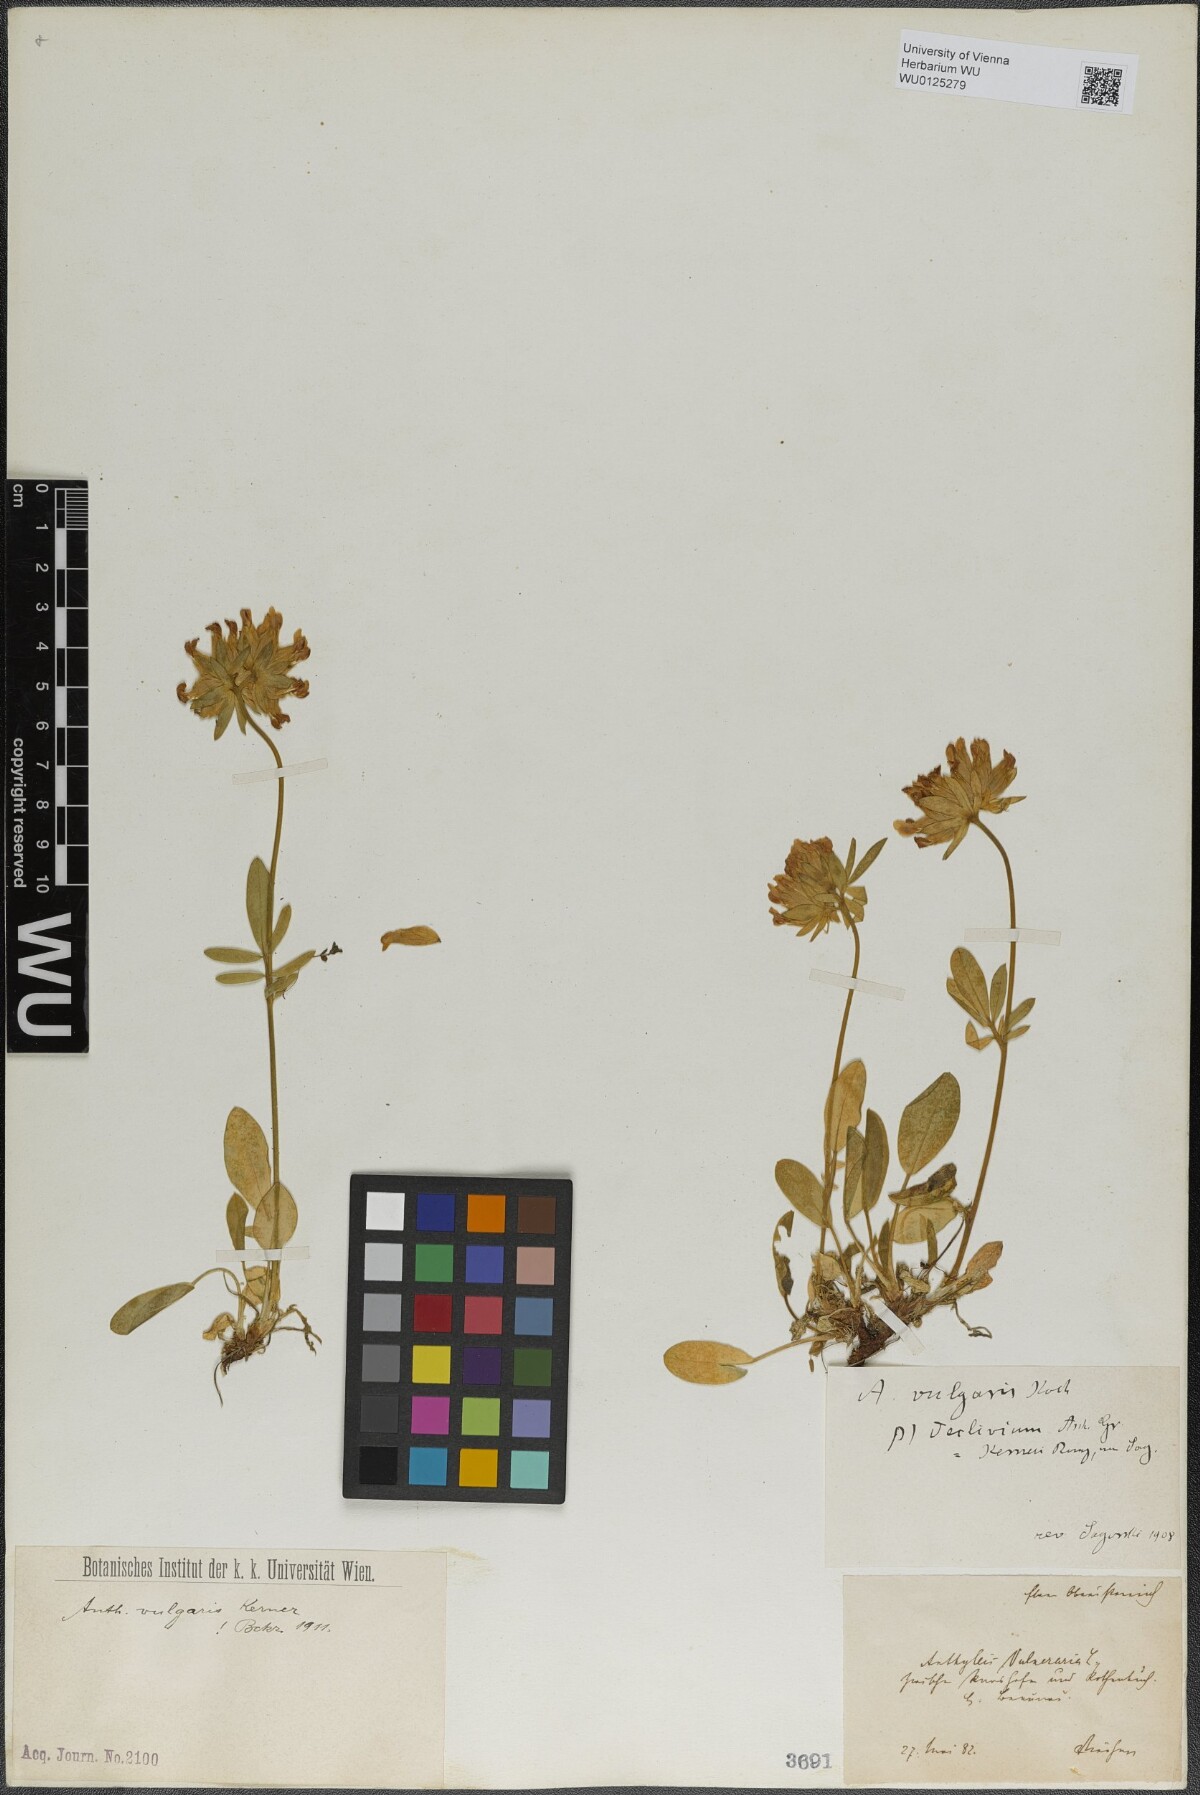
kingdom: Plantae
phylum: Tracheophyta
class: Magnoliopsida
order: Fabales
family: Fabaceae
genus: Anthyllis
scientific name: Anthyllis vulneraria
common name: Kidney vetch
